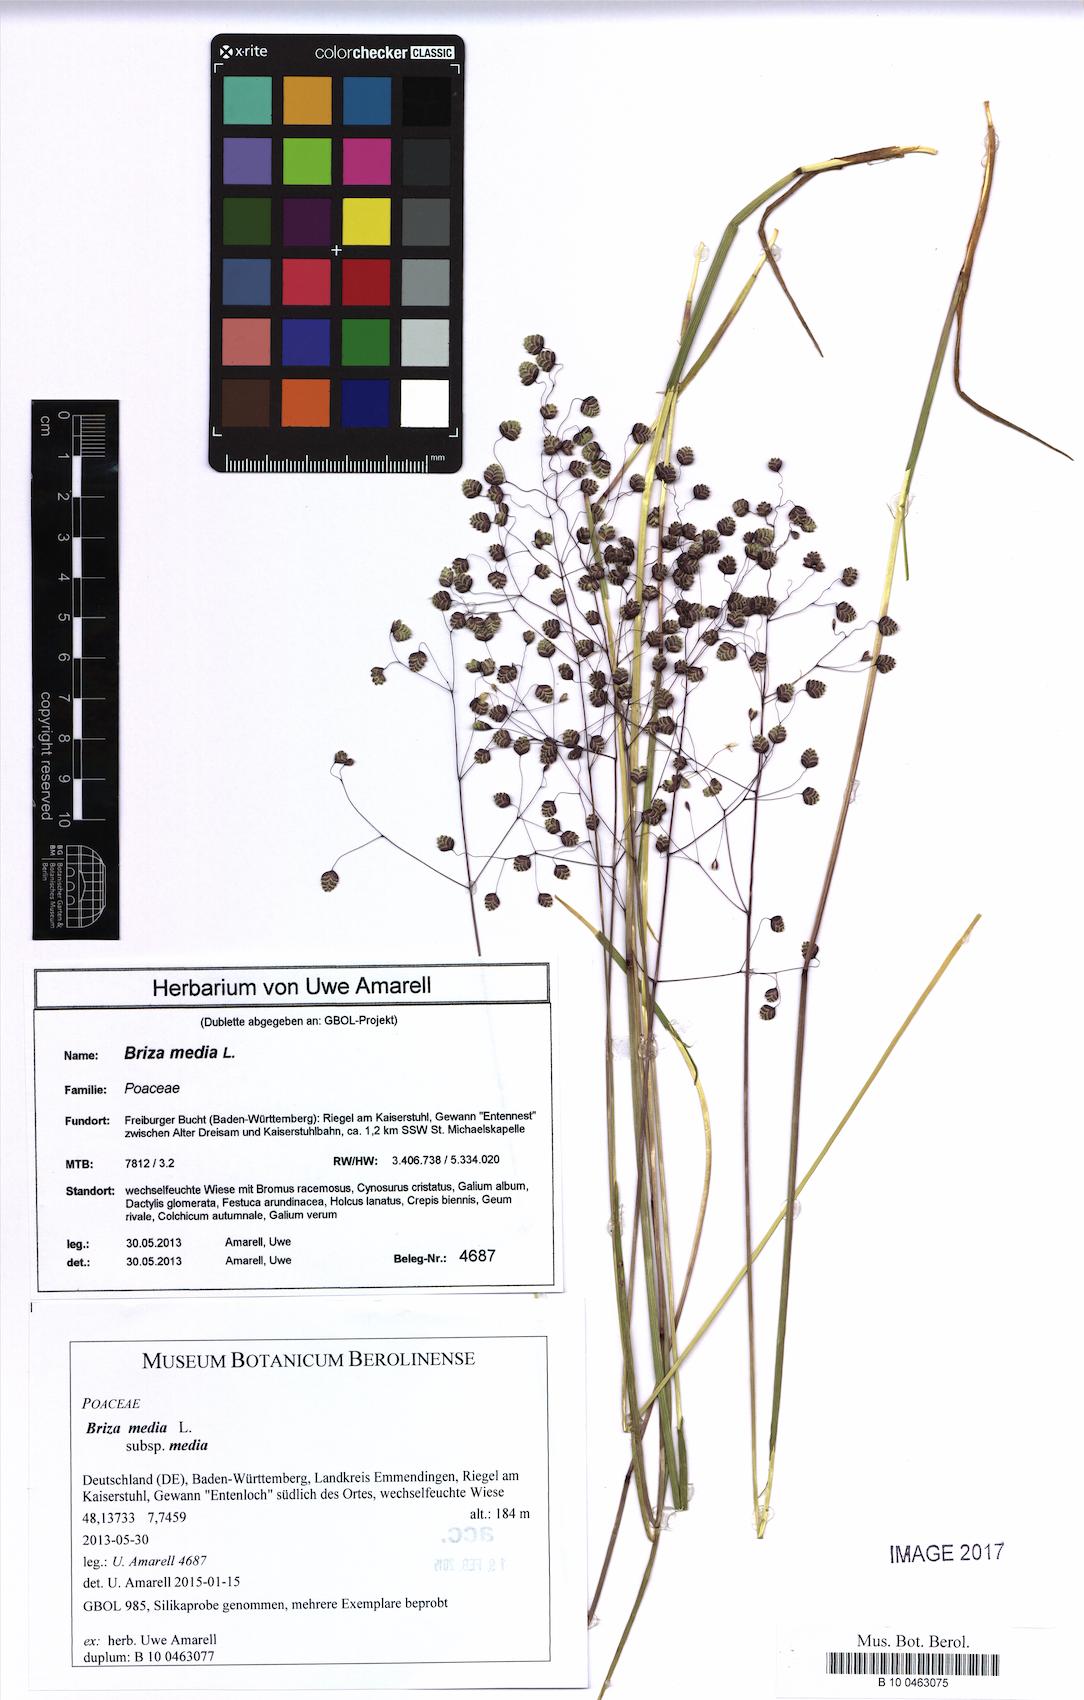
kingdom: Plantae
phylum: Tracheophyta
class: Liliopsida
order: Poales
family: Poaceae
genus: Briza
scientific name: Briza media
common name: Quaking grass
